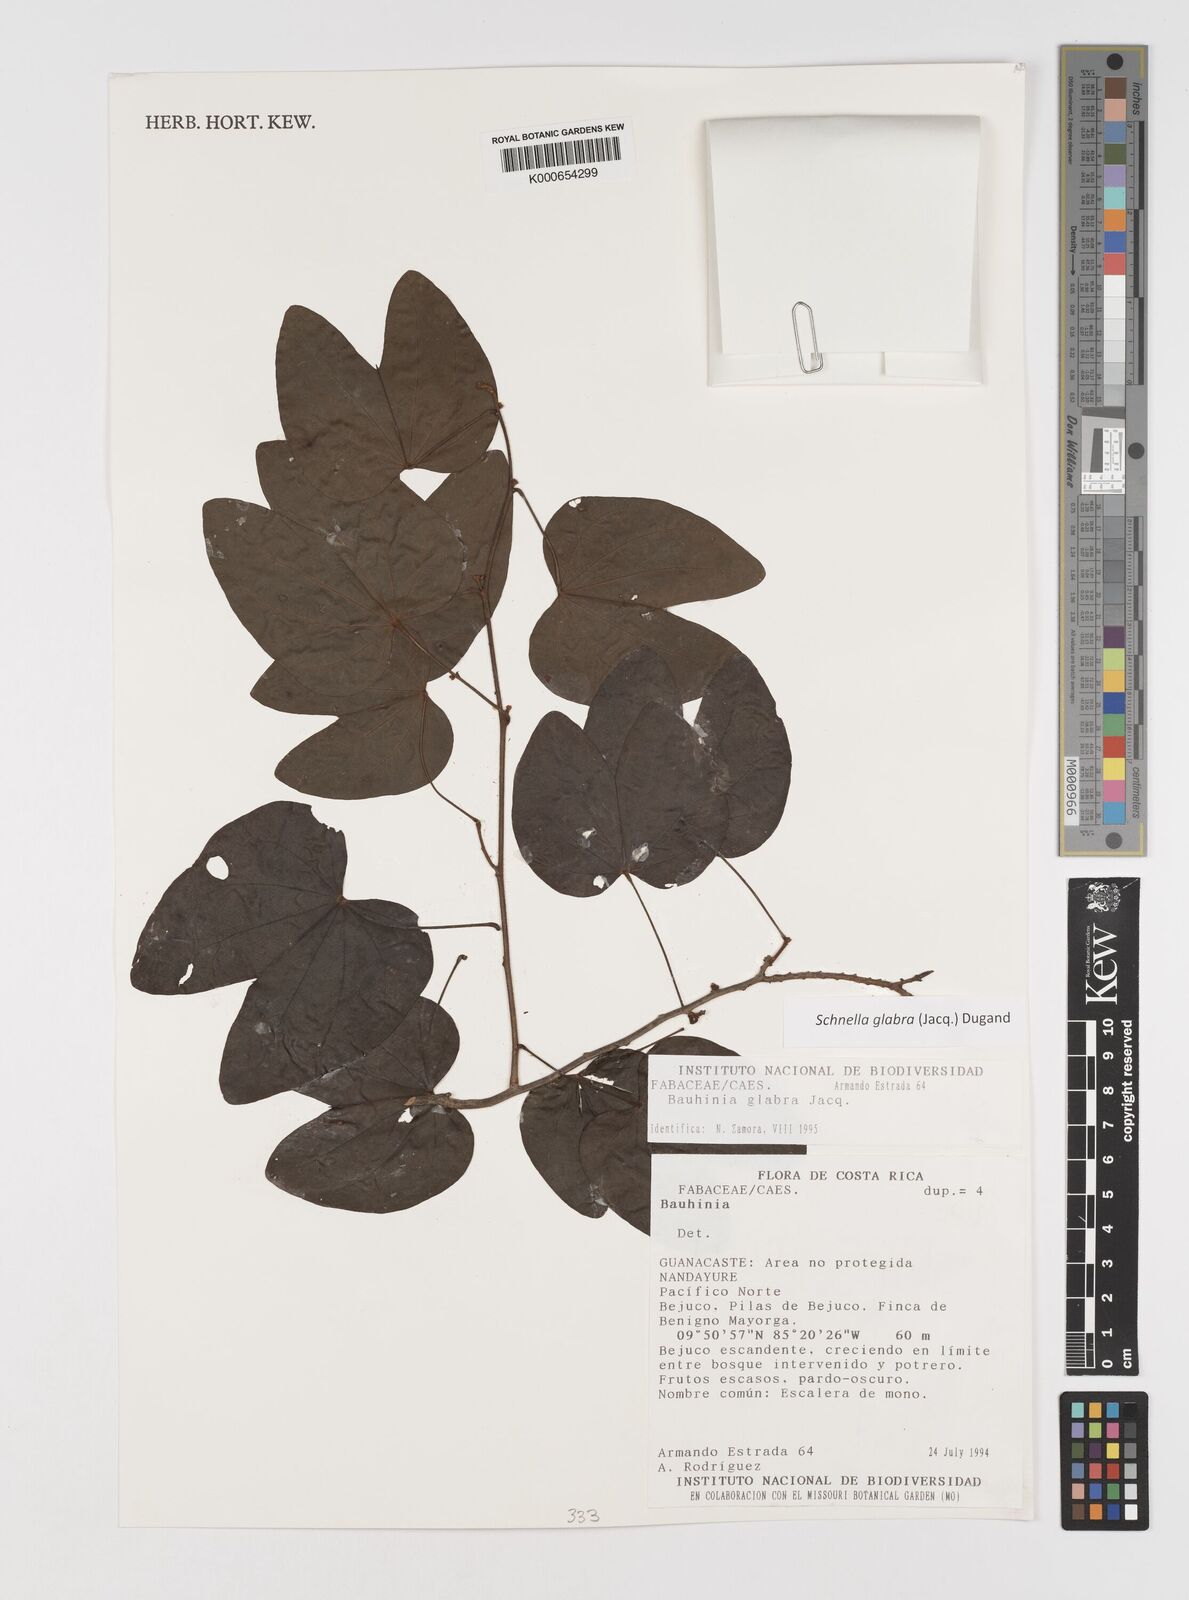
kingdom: Plantae
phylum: Tracheophyta
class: Magnoliopsida
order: Fabales
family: Fabaceae
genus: Schnella
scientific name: Schnella glabra
